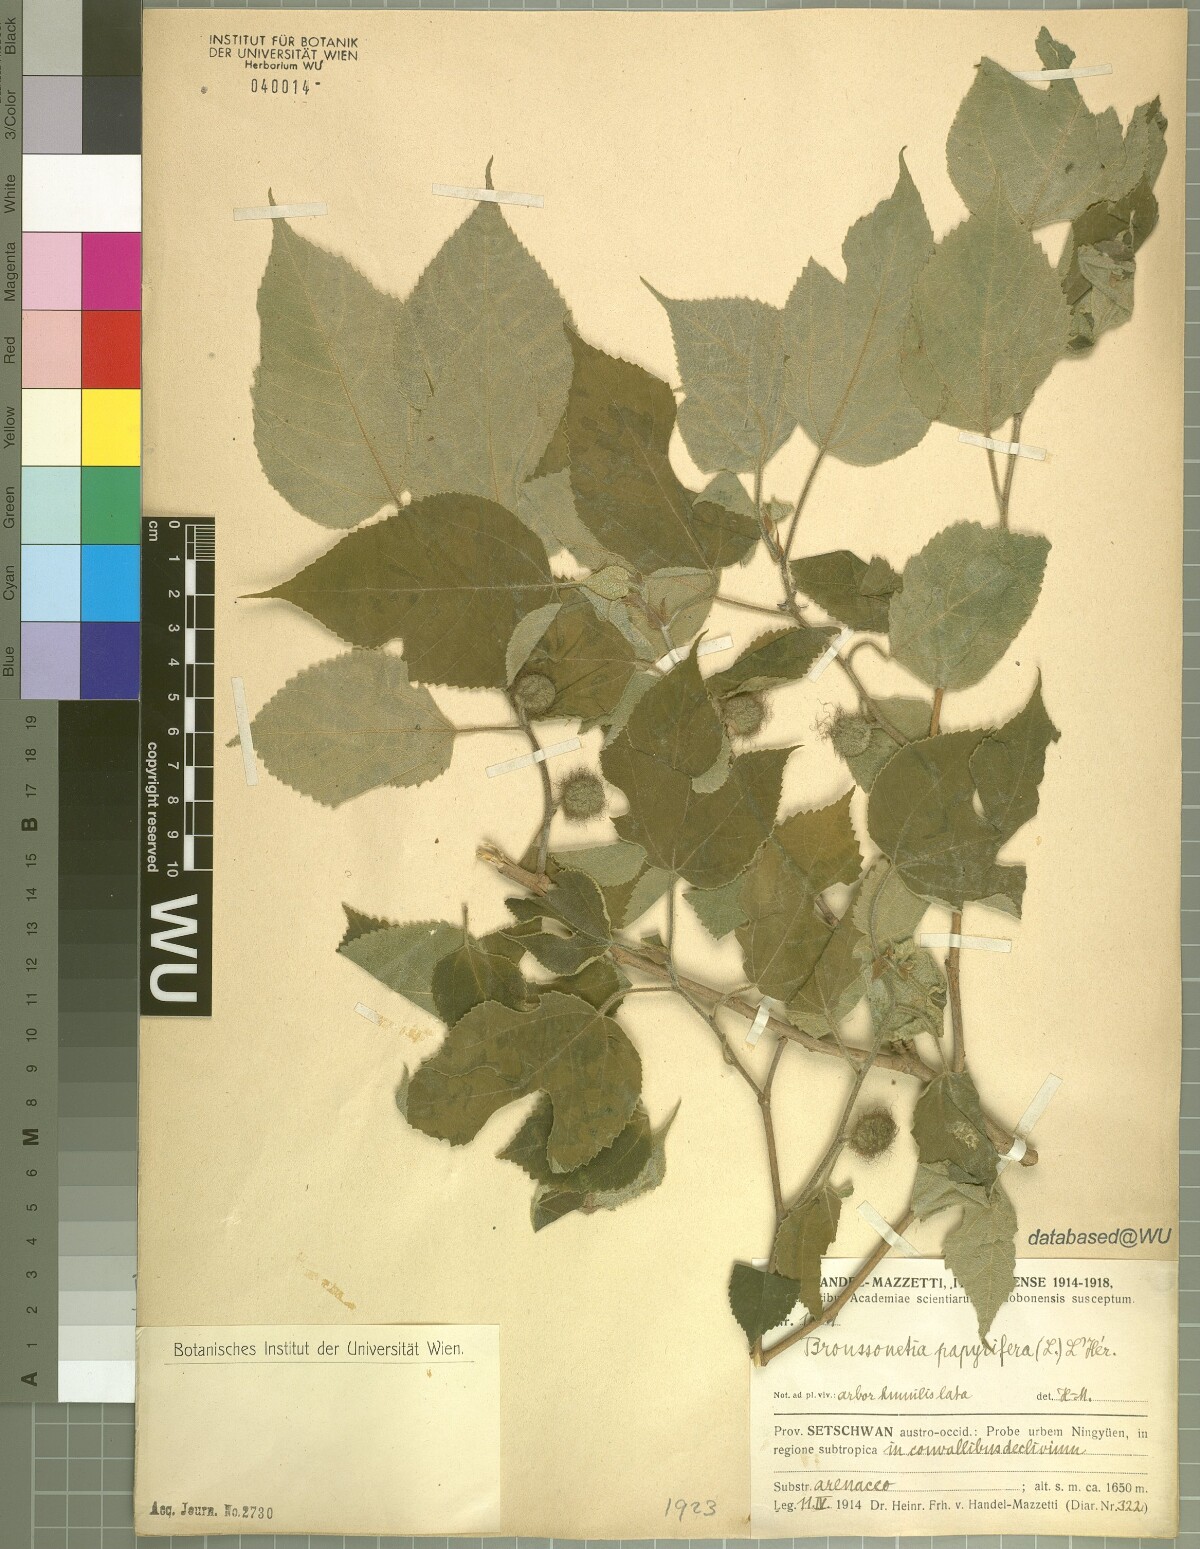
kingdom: Plantae
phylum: Tracheophyta
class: Magnoliopsida
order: Rosales
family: Moraceae
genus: Broussonetia
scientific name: Broussonetia papyrifera
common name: Paper mulberry
